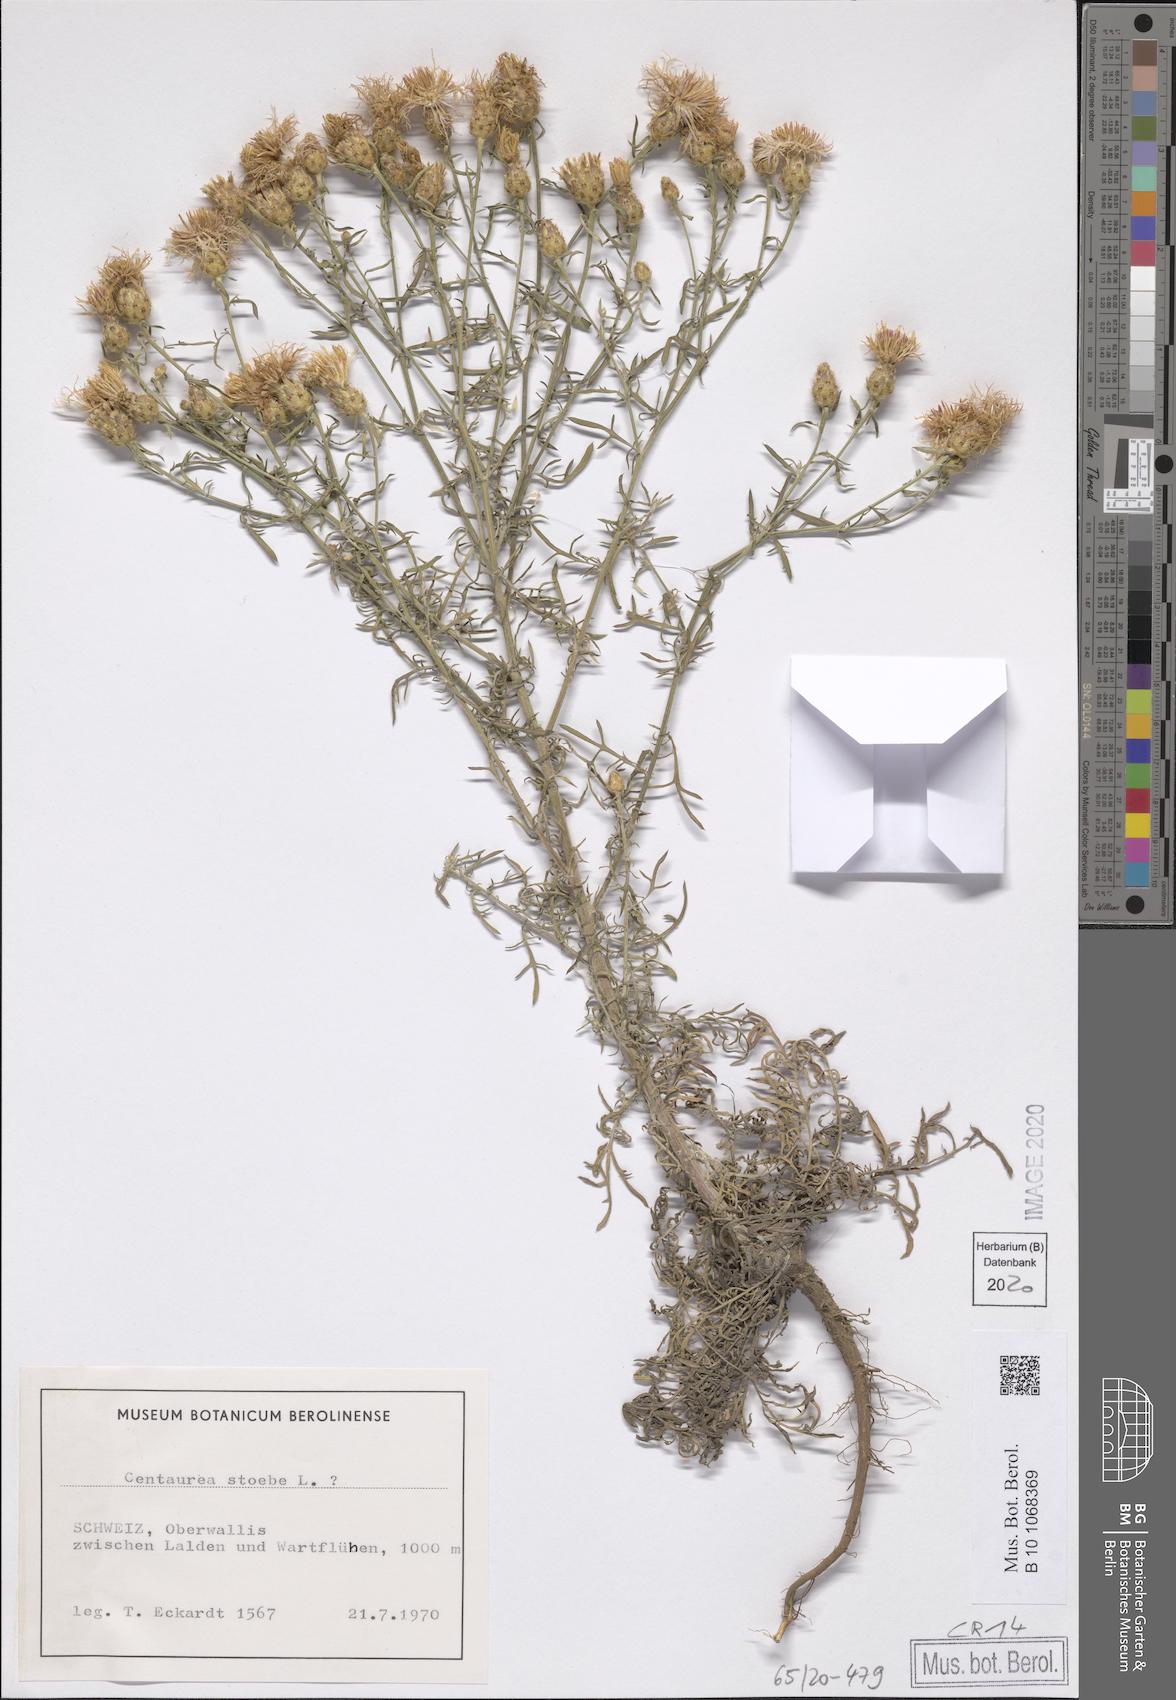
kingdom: Plantae
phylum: Tracheophyta
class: Magnoliopsida
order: Asterales
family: Asteraceae
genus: Centaurea
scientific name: Centaurea stoebe
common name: Spotted knapweed
